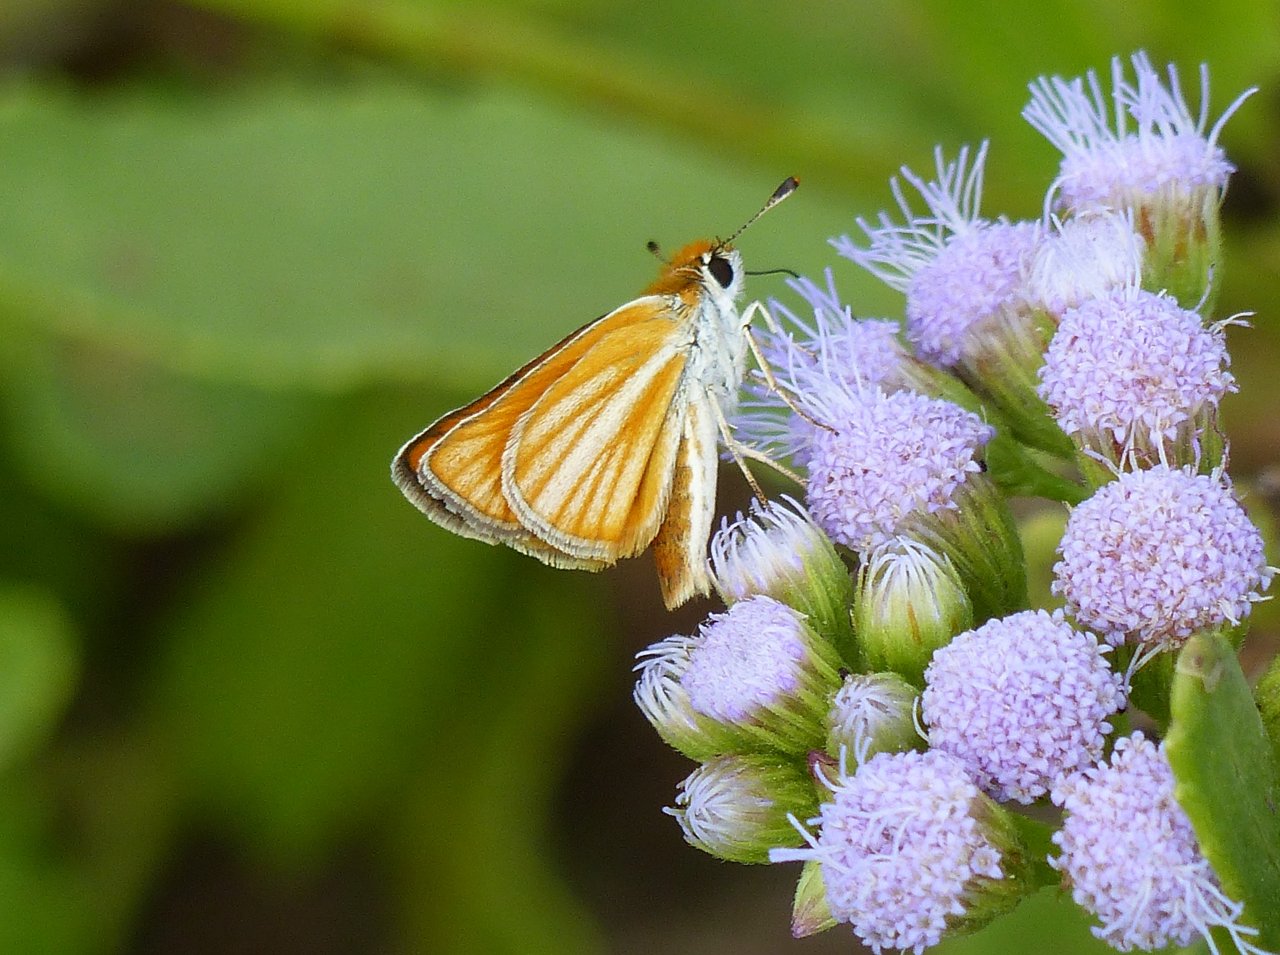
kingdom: Animalia
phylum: Arthropoda
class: Insecta
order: Lepidoptera
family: Hesperiidae
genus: Copaeodes
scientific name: Copaeodes minima
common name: Southern Skipperling
